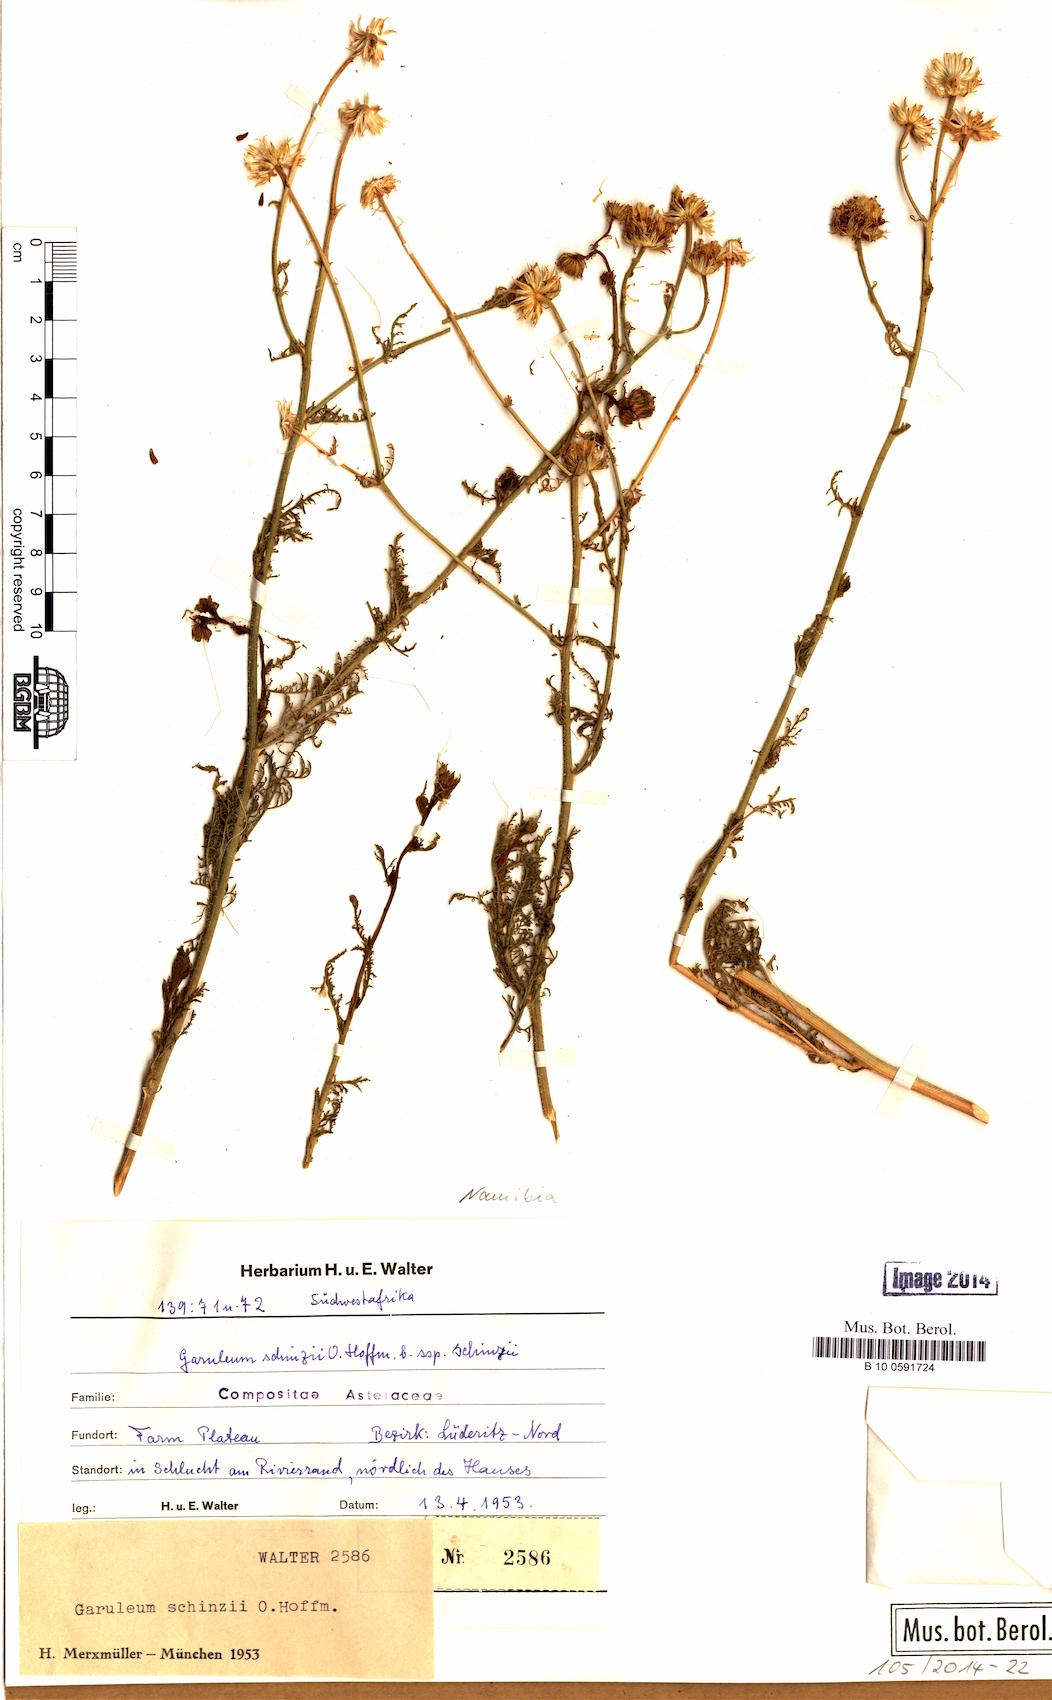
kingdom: Plantae
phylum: Tracheophyta
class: Magnoliopsida
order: Asterales
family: Asteraceae
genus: Garuleum
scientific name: Garuleum schinzii
